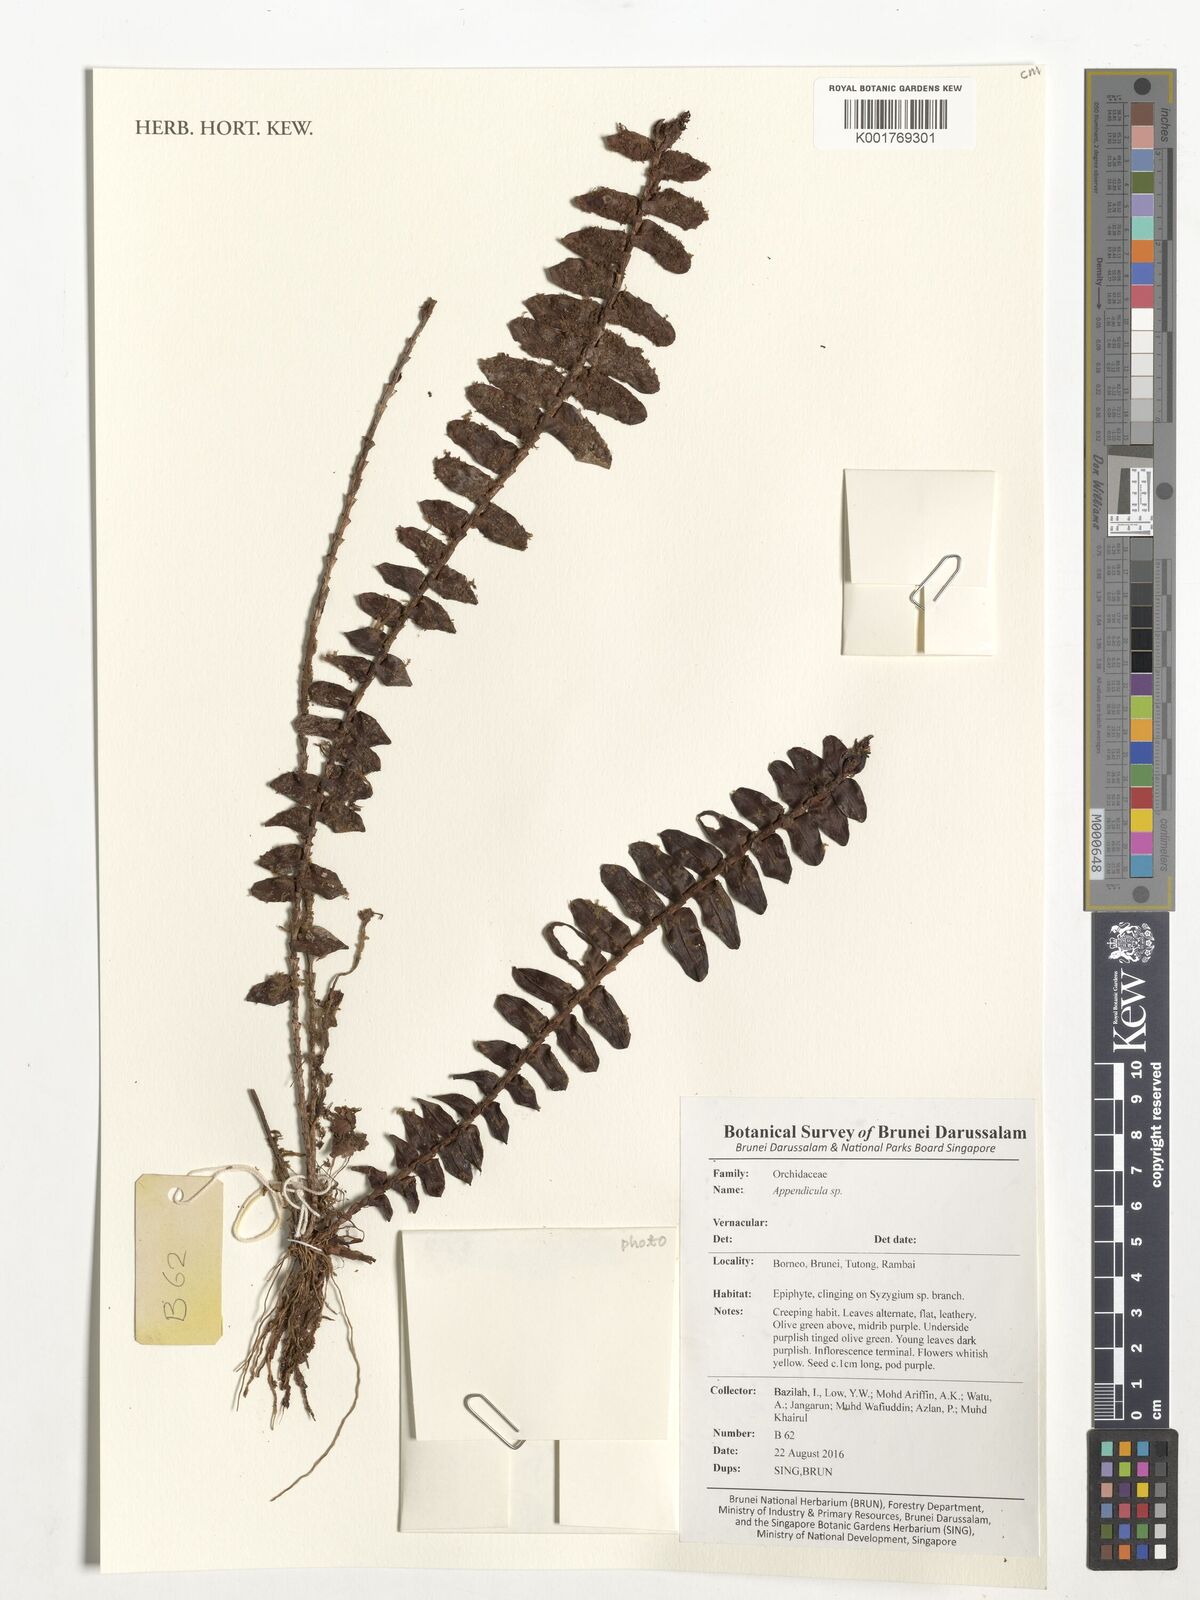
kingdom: Plantae
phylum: Tracheophyta
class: Liliopsida
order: Asparagales
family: Orchidaceae
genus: Appendicula
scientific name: Appendicula
